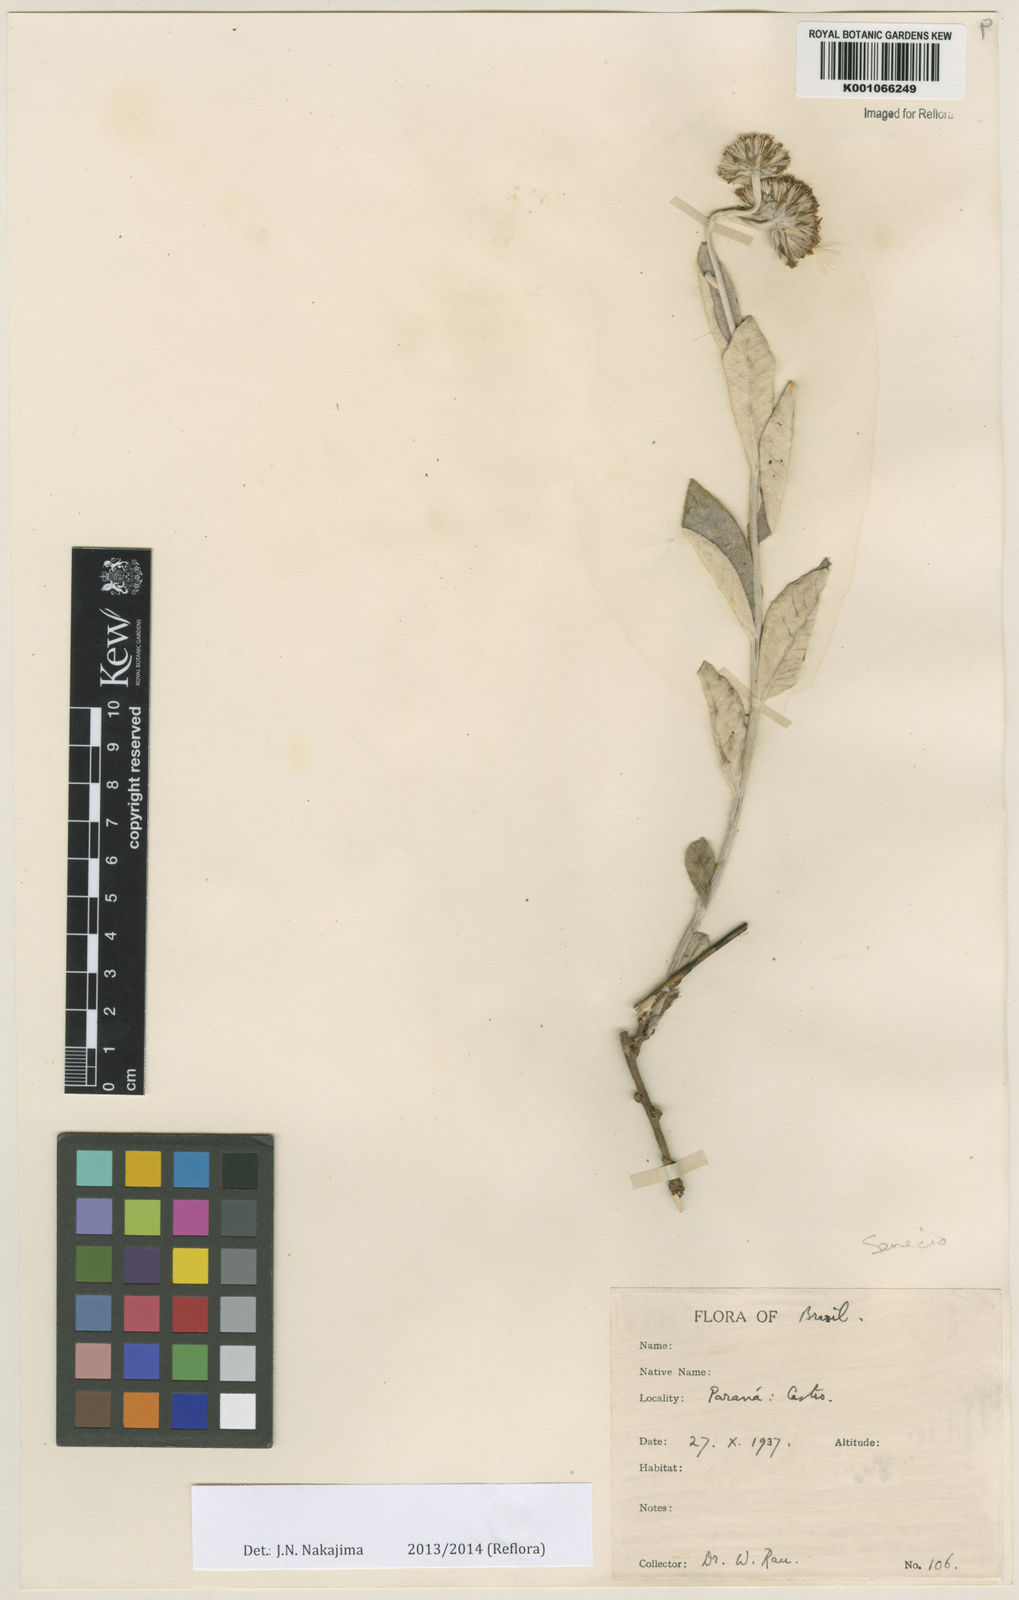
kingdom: Plantae
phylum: Tracheophyta
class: Magnoliopsida
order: Asterales
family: Asteraceae
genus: Senecio
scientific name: Senecio
